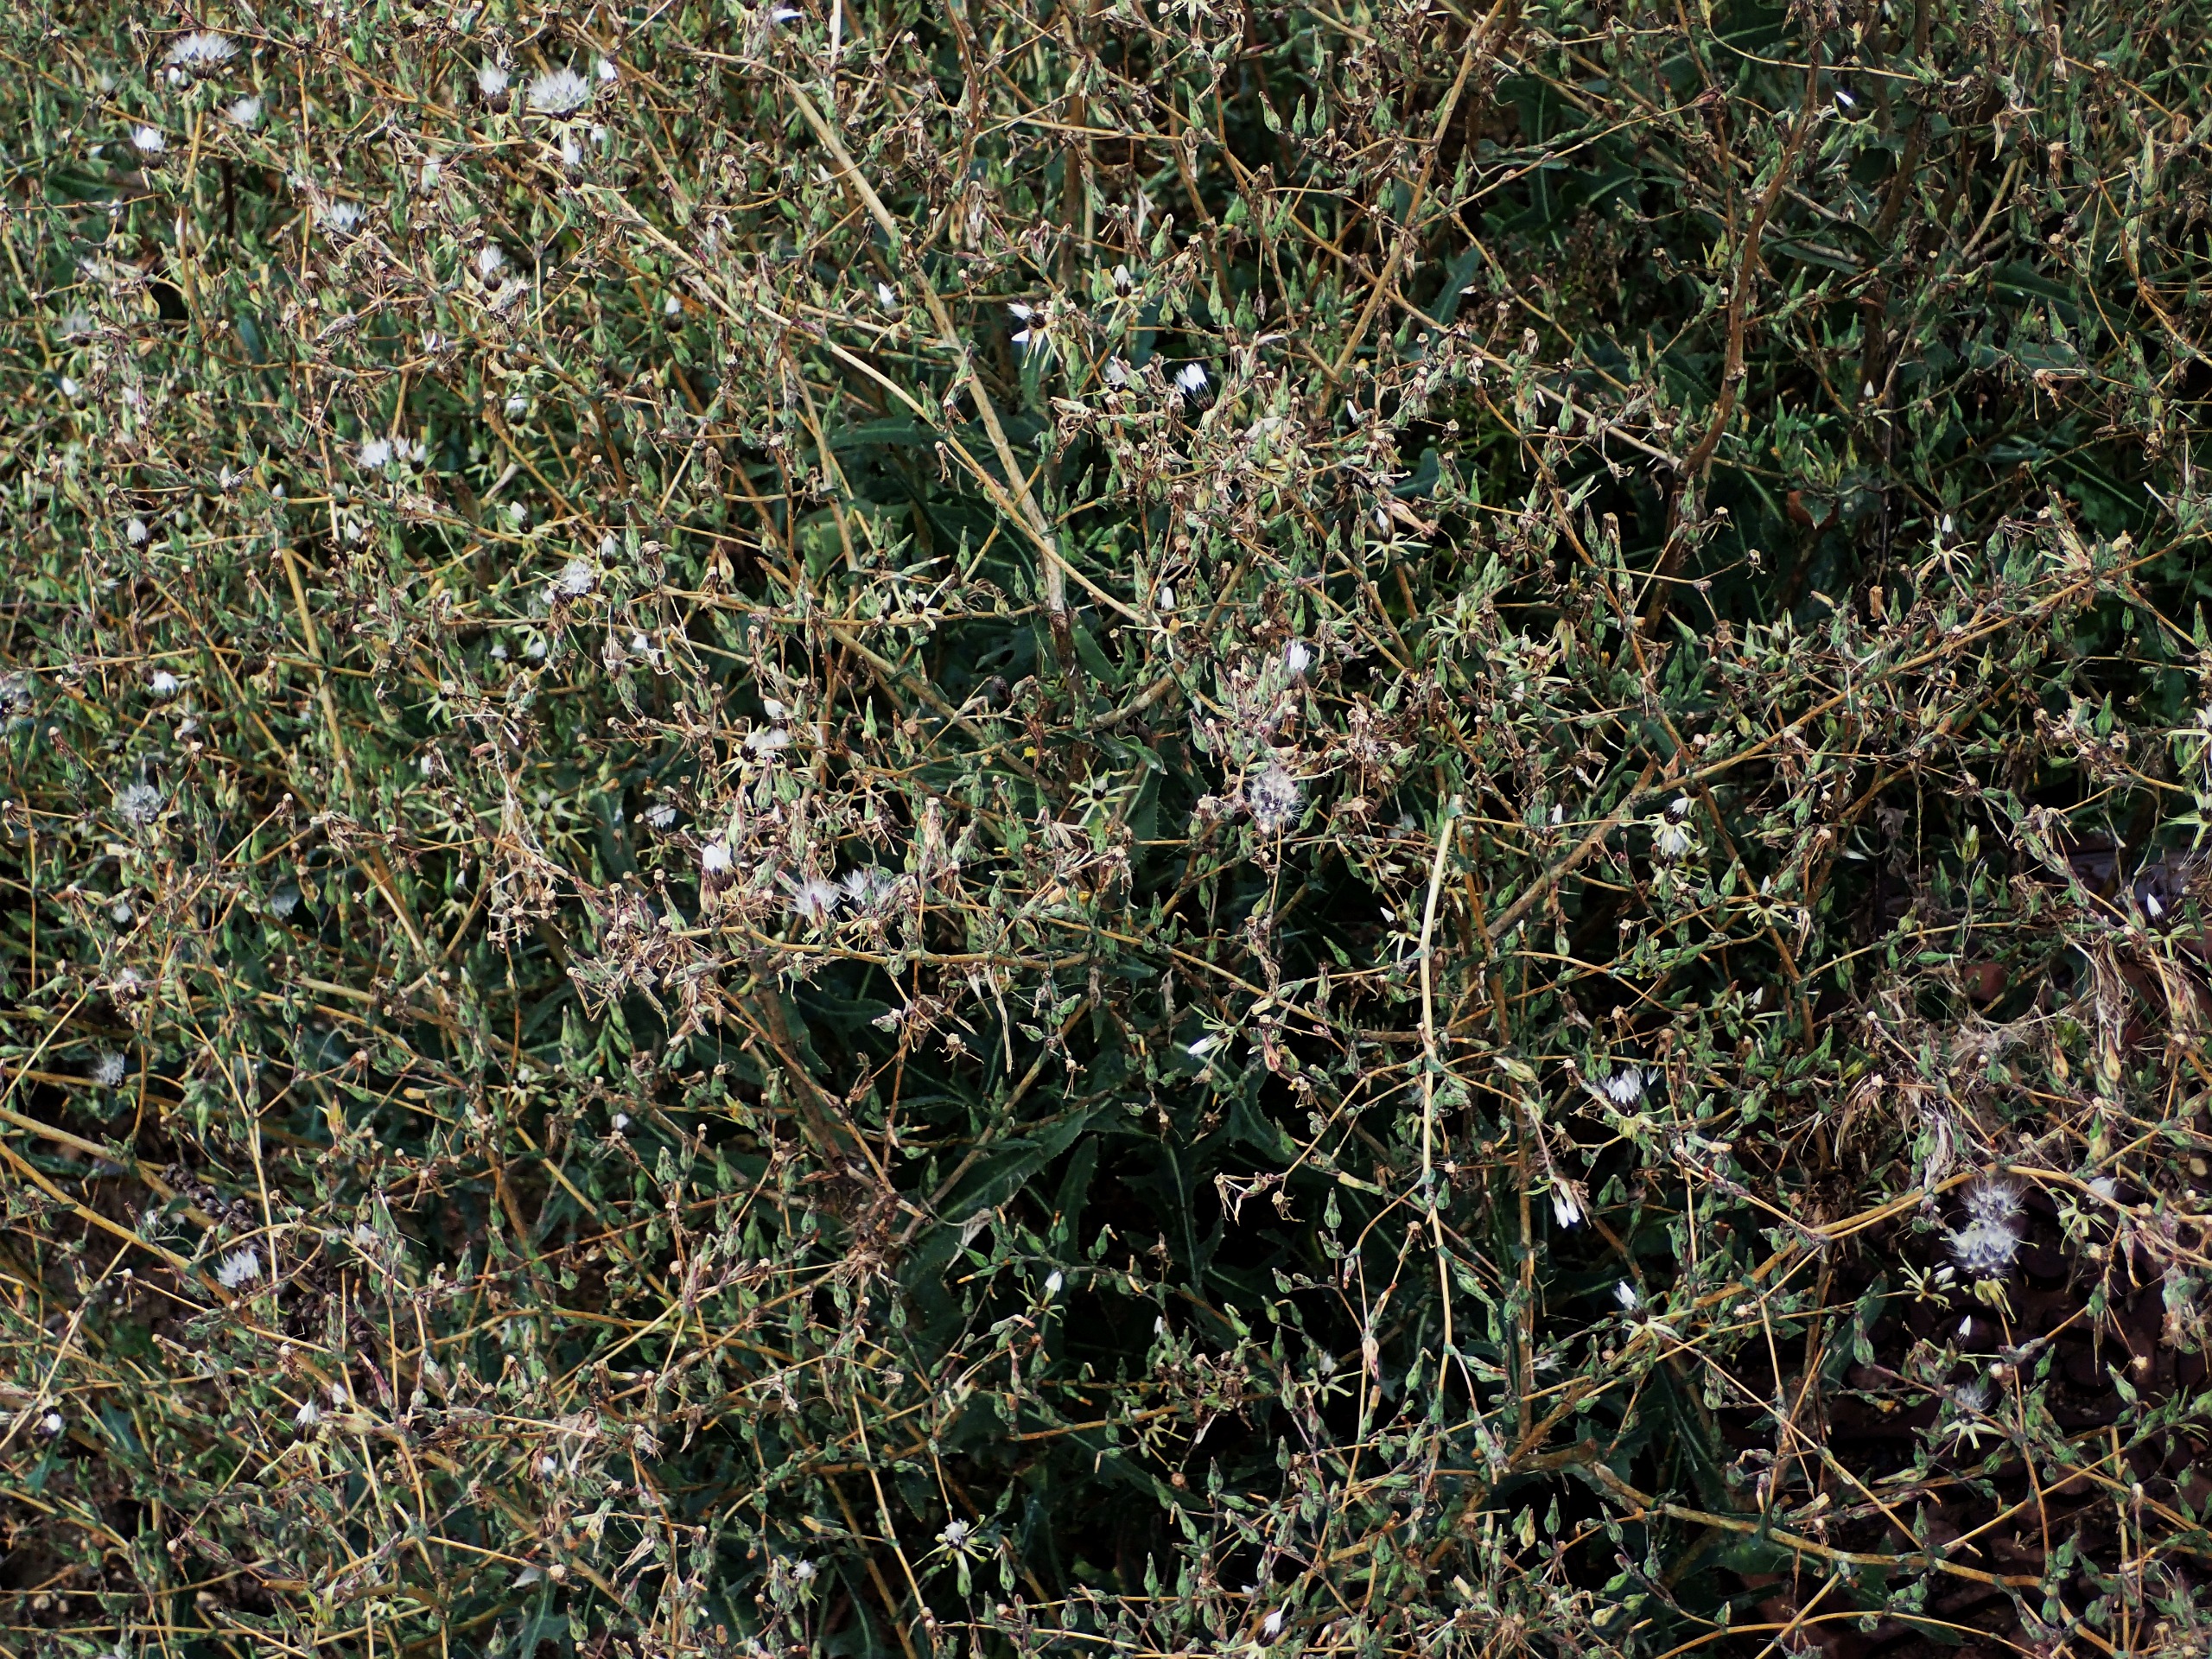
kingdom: Plantae
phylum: Tracheophyta
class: Magnoliopsida
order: Asterales
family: Asteraceae
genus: Lactuca
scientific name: Lactuca serriola
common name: Tornet salat
